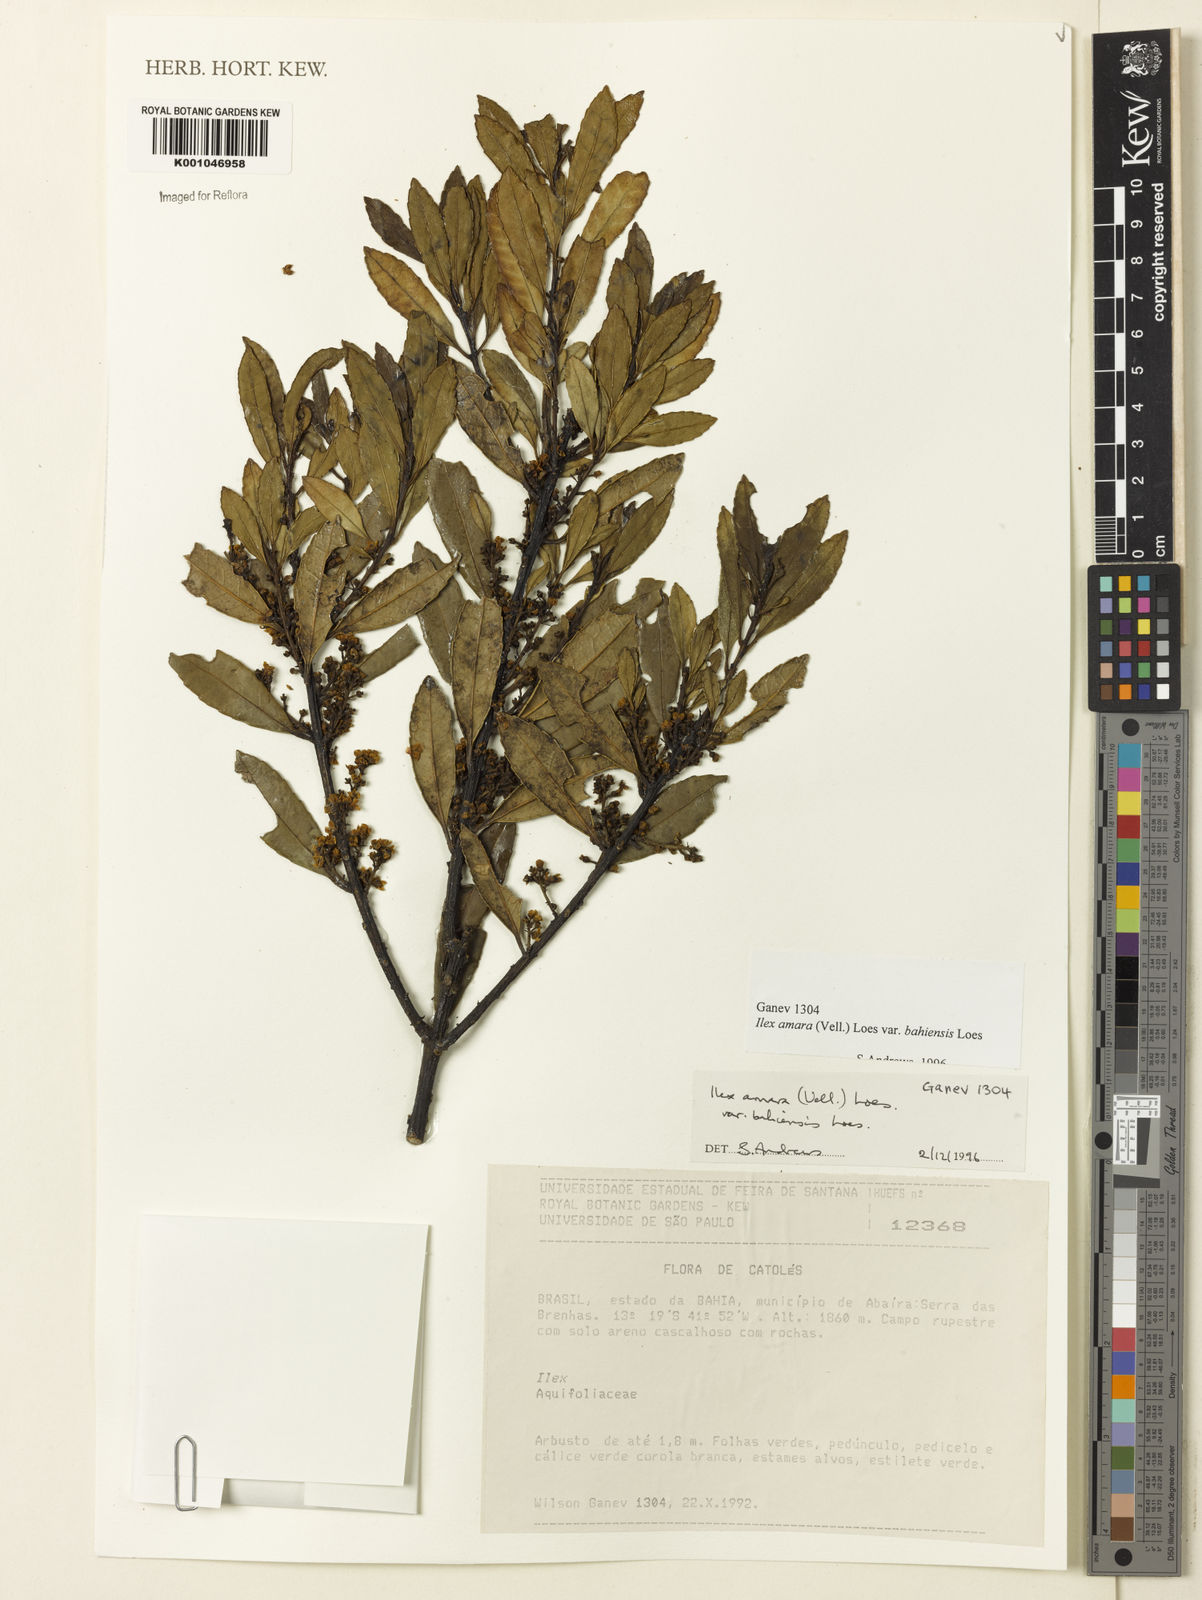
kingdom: Plantae
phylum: Tracheophyta
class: Magnoliopsida
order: Aquifoliales
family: Aquifoliaceae
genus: Ilex
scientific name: Ilex dumosa
